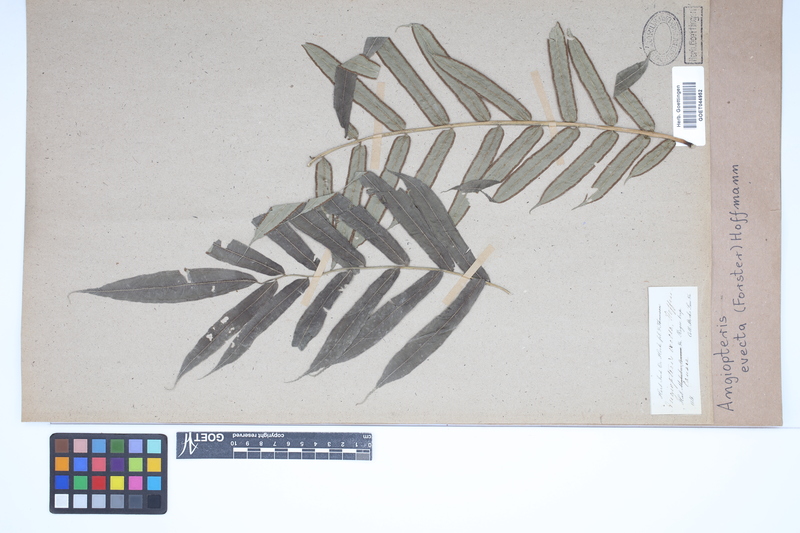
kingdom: Plantae
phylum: Tracheophyta
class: Polypodiopsida
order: Marattiales
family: Marattiaceae
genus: Angiopteris
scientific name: Angiopteris evecta
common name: Mule's-foot fern
